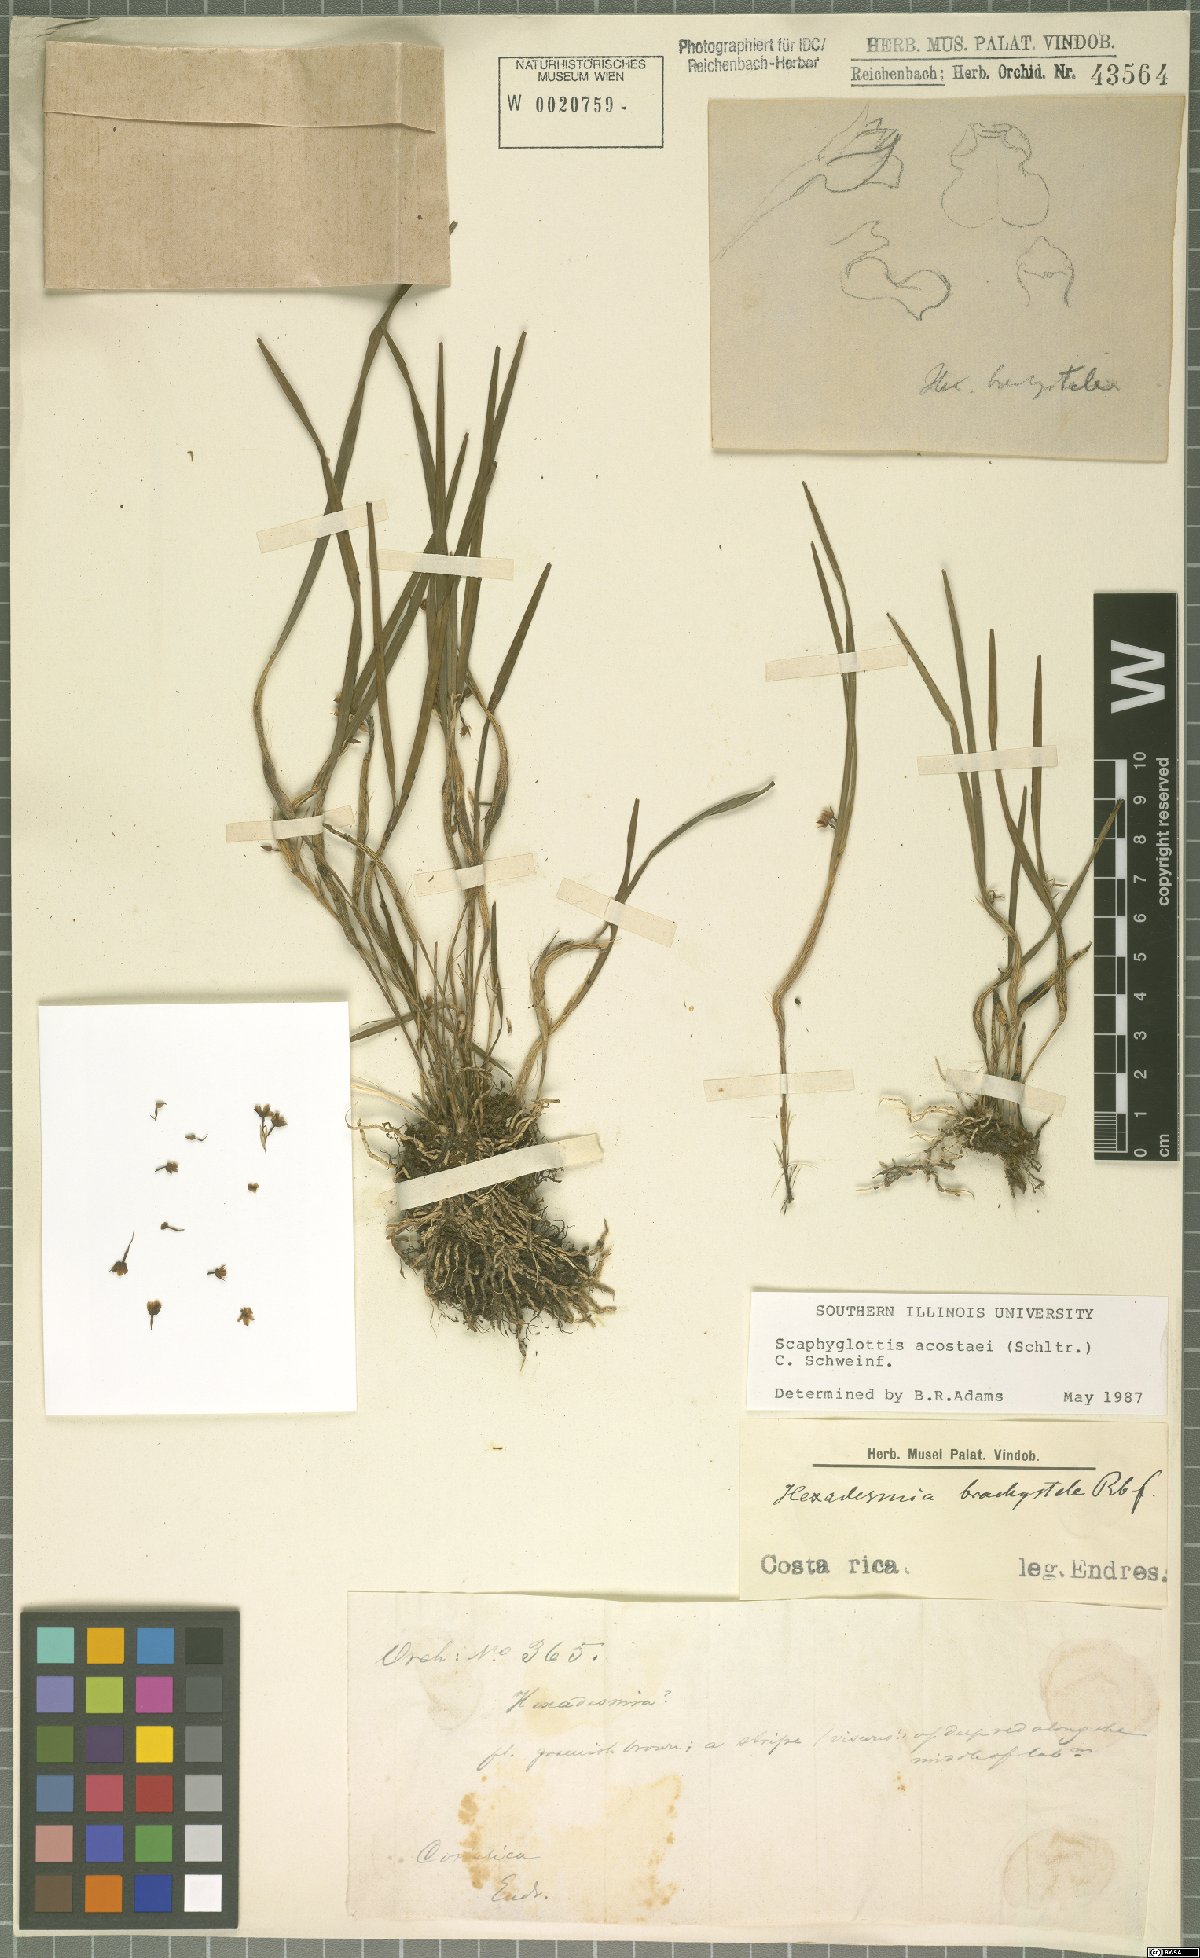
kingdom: Plantae
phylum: Tracheophyta
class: Liliopsida
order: Asparagales
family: Orchidaceae
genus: Scaphyglottis
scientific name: Scaphyglottis acostae
